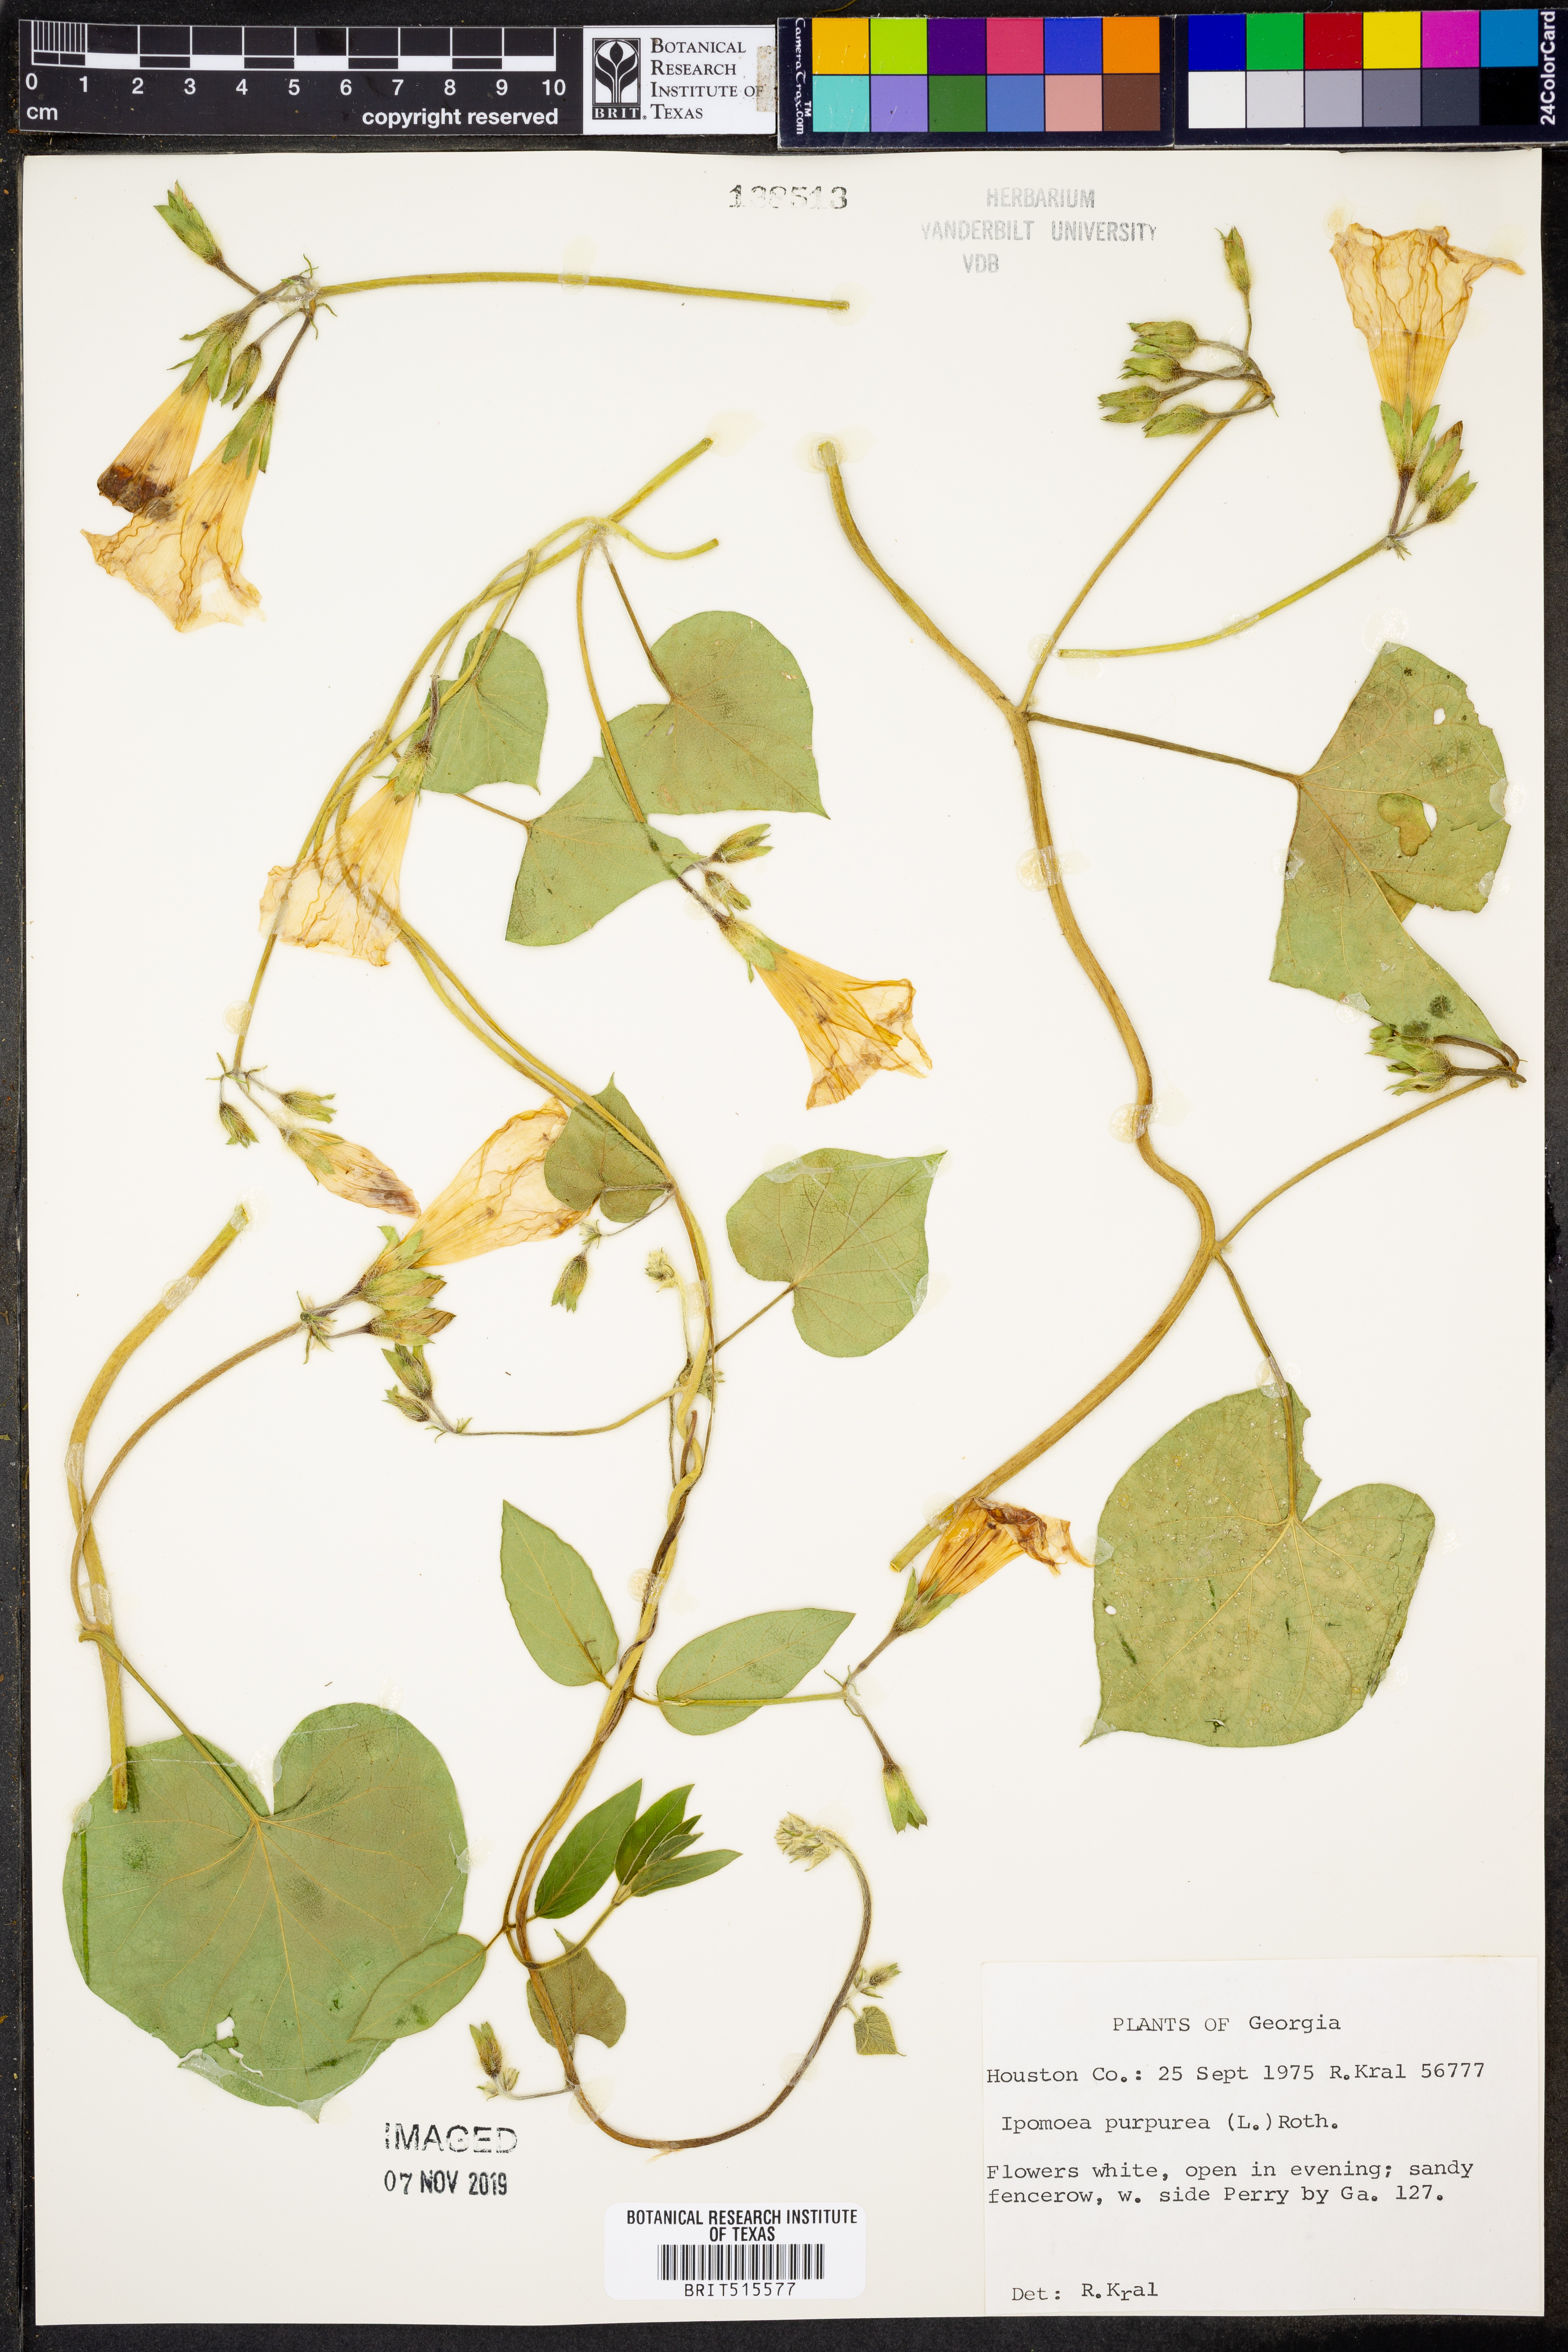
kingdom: Plantae
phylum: Tracheophyta
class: Magnoliopsida
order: Solanales
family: Convolvulaceae
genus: Ipomoea
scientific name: Ipomoea purpurea
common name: Common morning-glory
